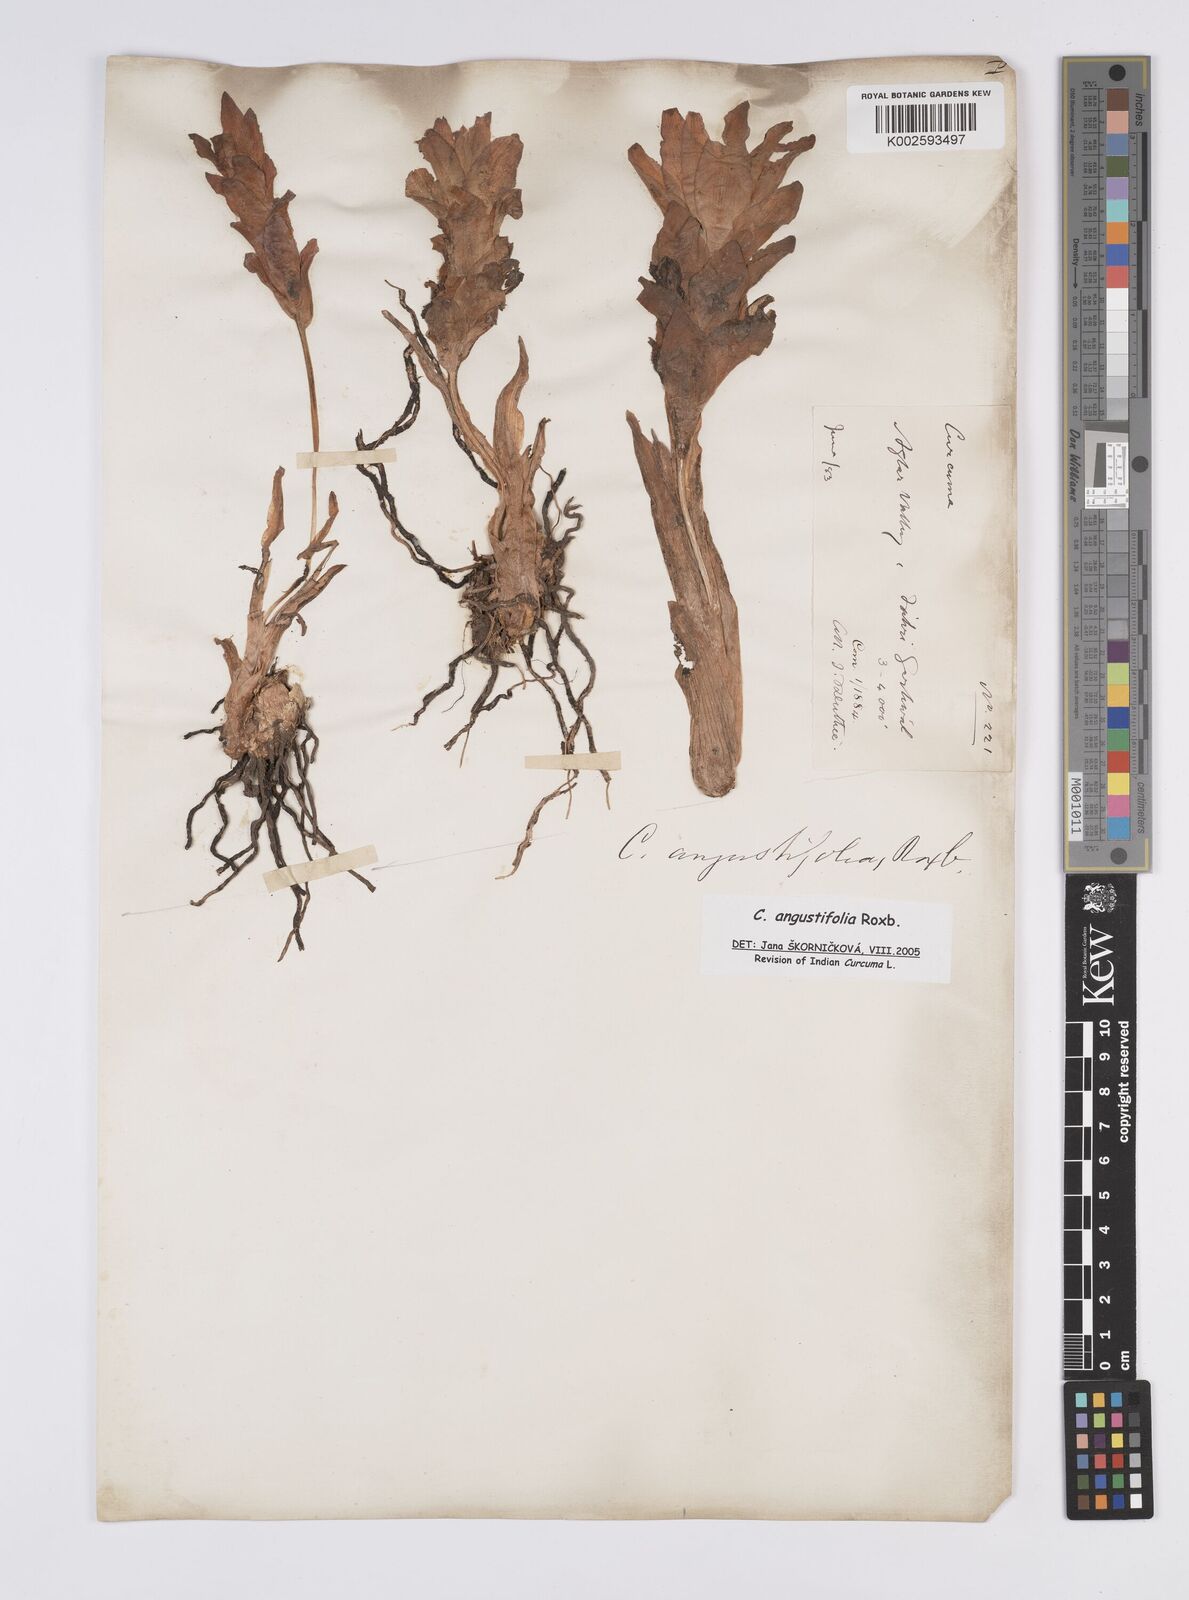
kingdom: Plantae
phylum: Tracheophyta
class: Liliopsida
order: Zingiberales
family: Zingiberaceae
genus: Curcuma
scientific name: Curcuma angustifolia
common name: East indian arrowroot
